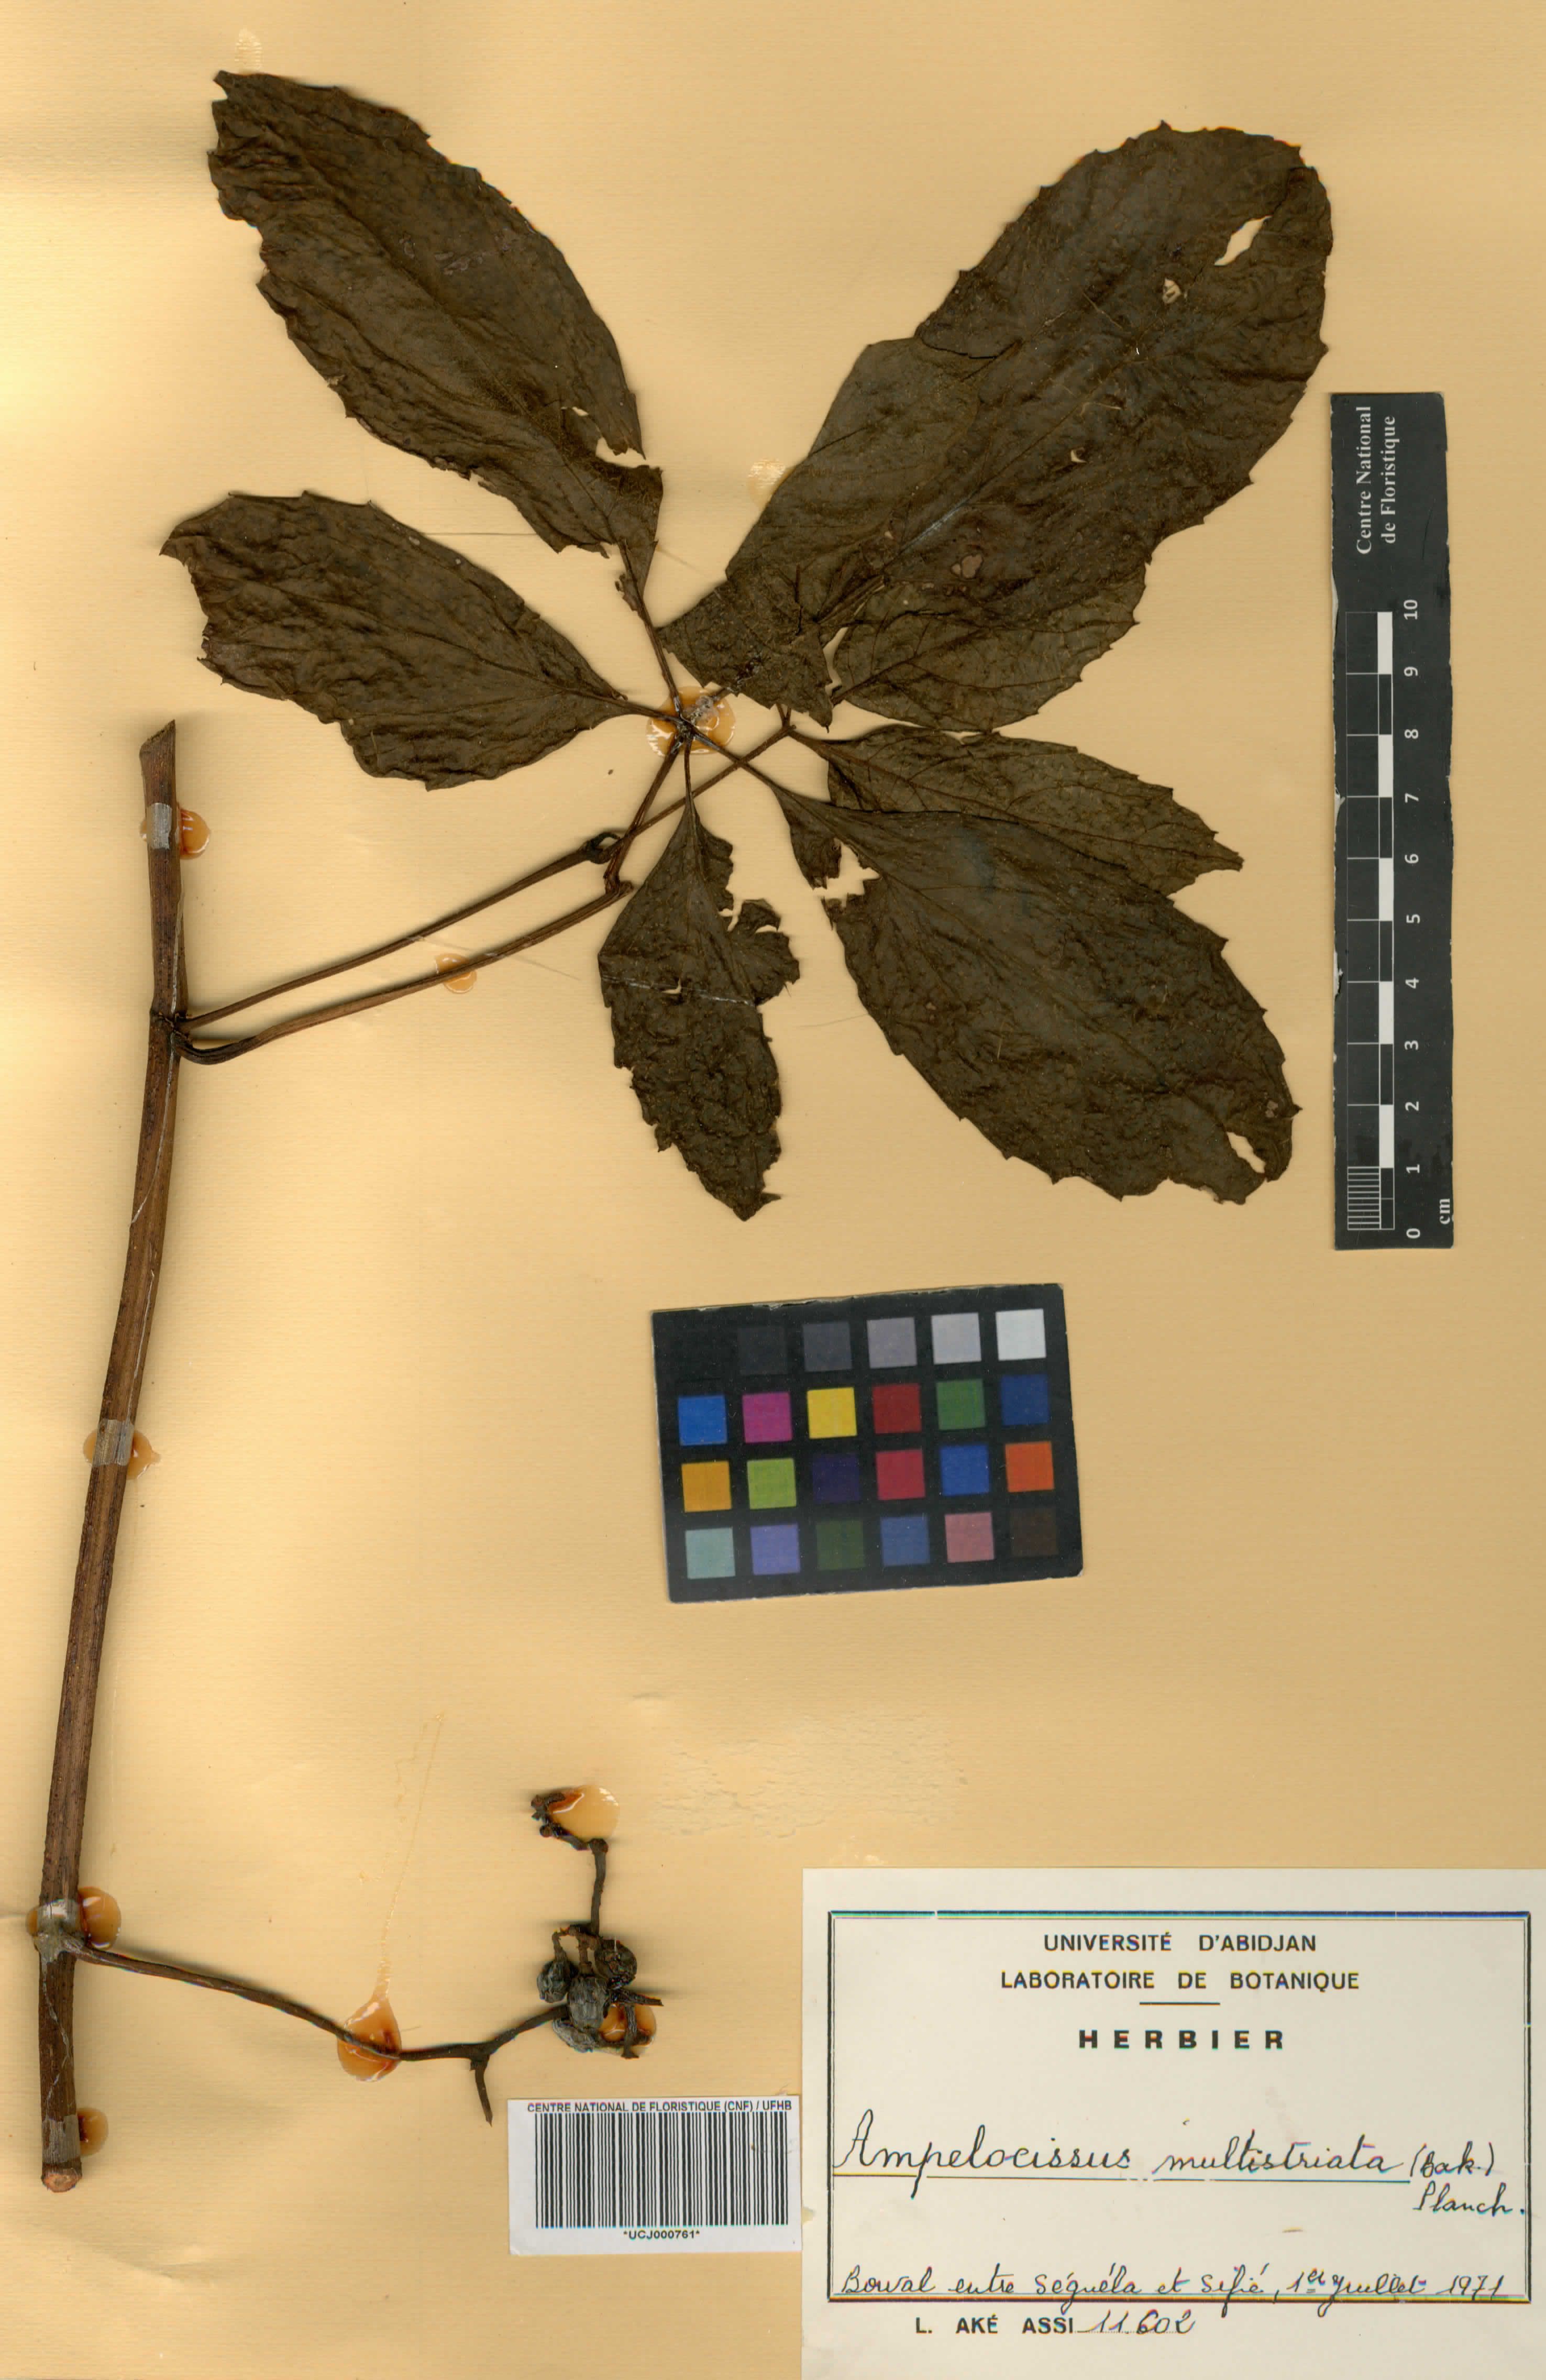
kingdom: Plantae
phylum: Tracheophyta
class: Magnoliopsida
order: Vitales
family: Vitaceae
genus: Ampelocissus
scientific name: Ampelocissus multistriata
